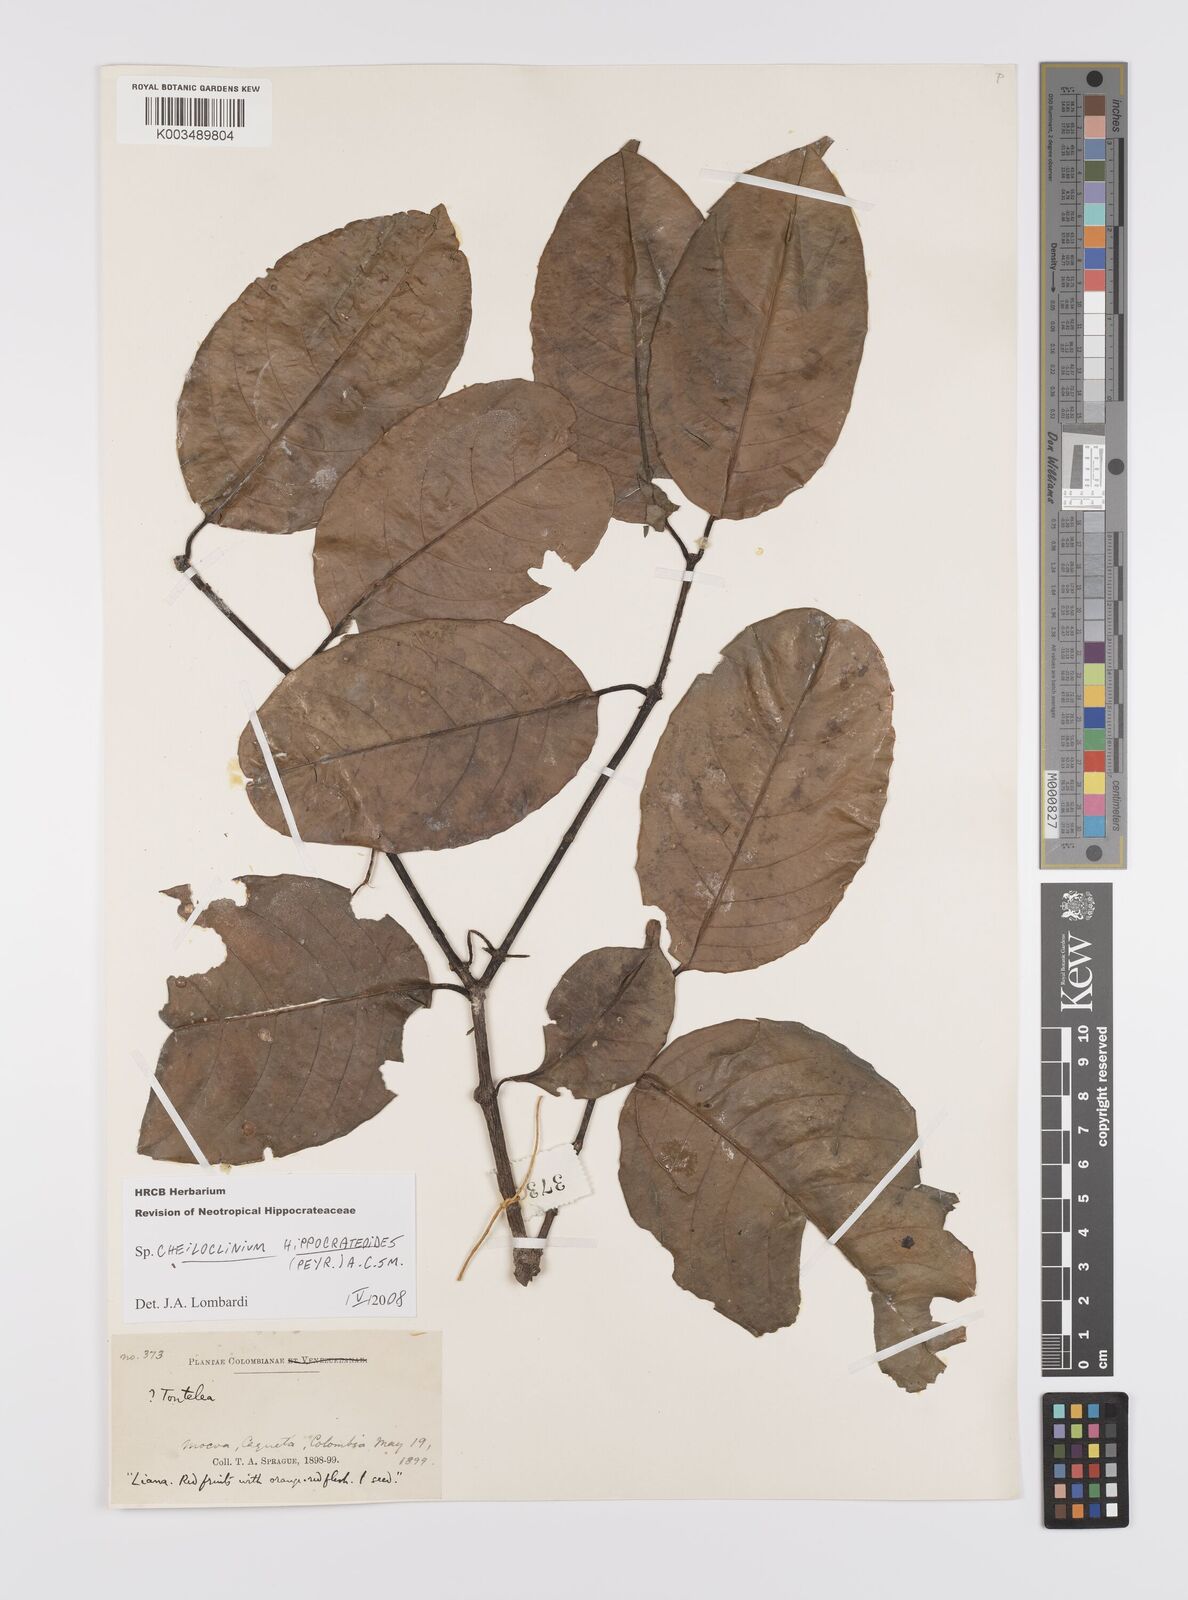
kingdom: Plantae
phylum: Tracheophyta
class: Magnoliopsida
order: Celastrales
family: Celastraceae
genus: Cheiloclinium
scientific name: Cheiloclinium hippocrateoides
